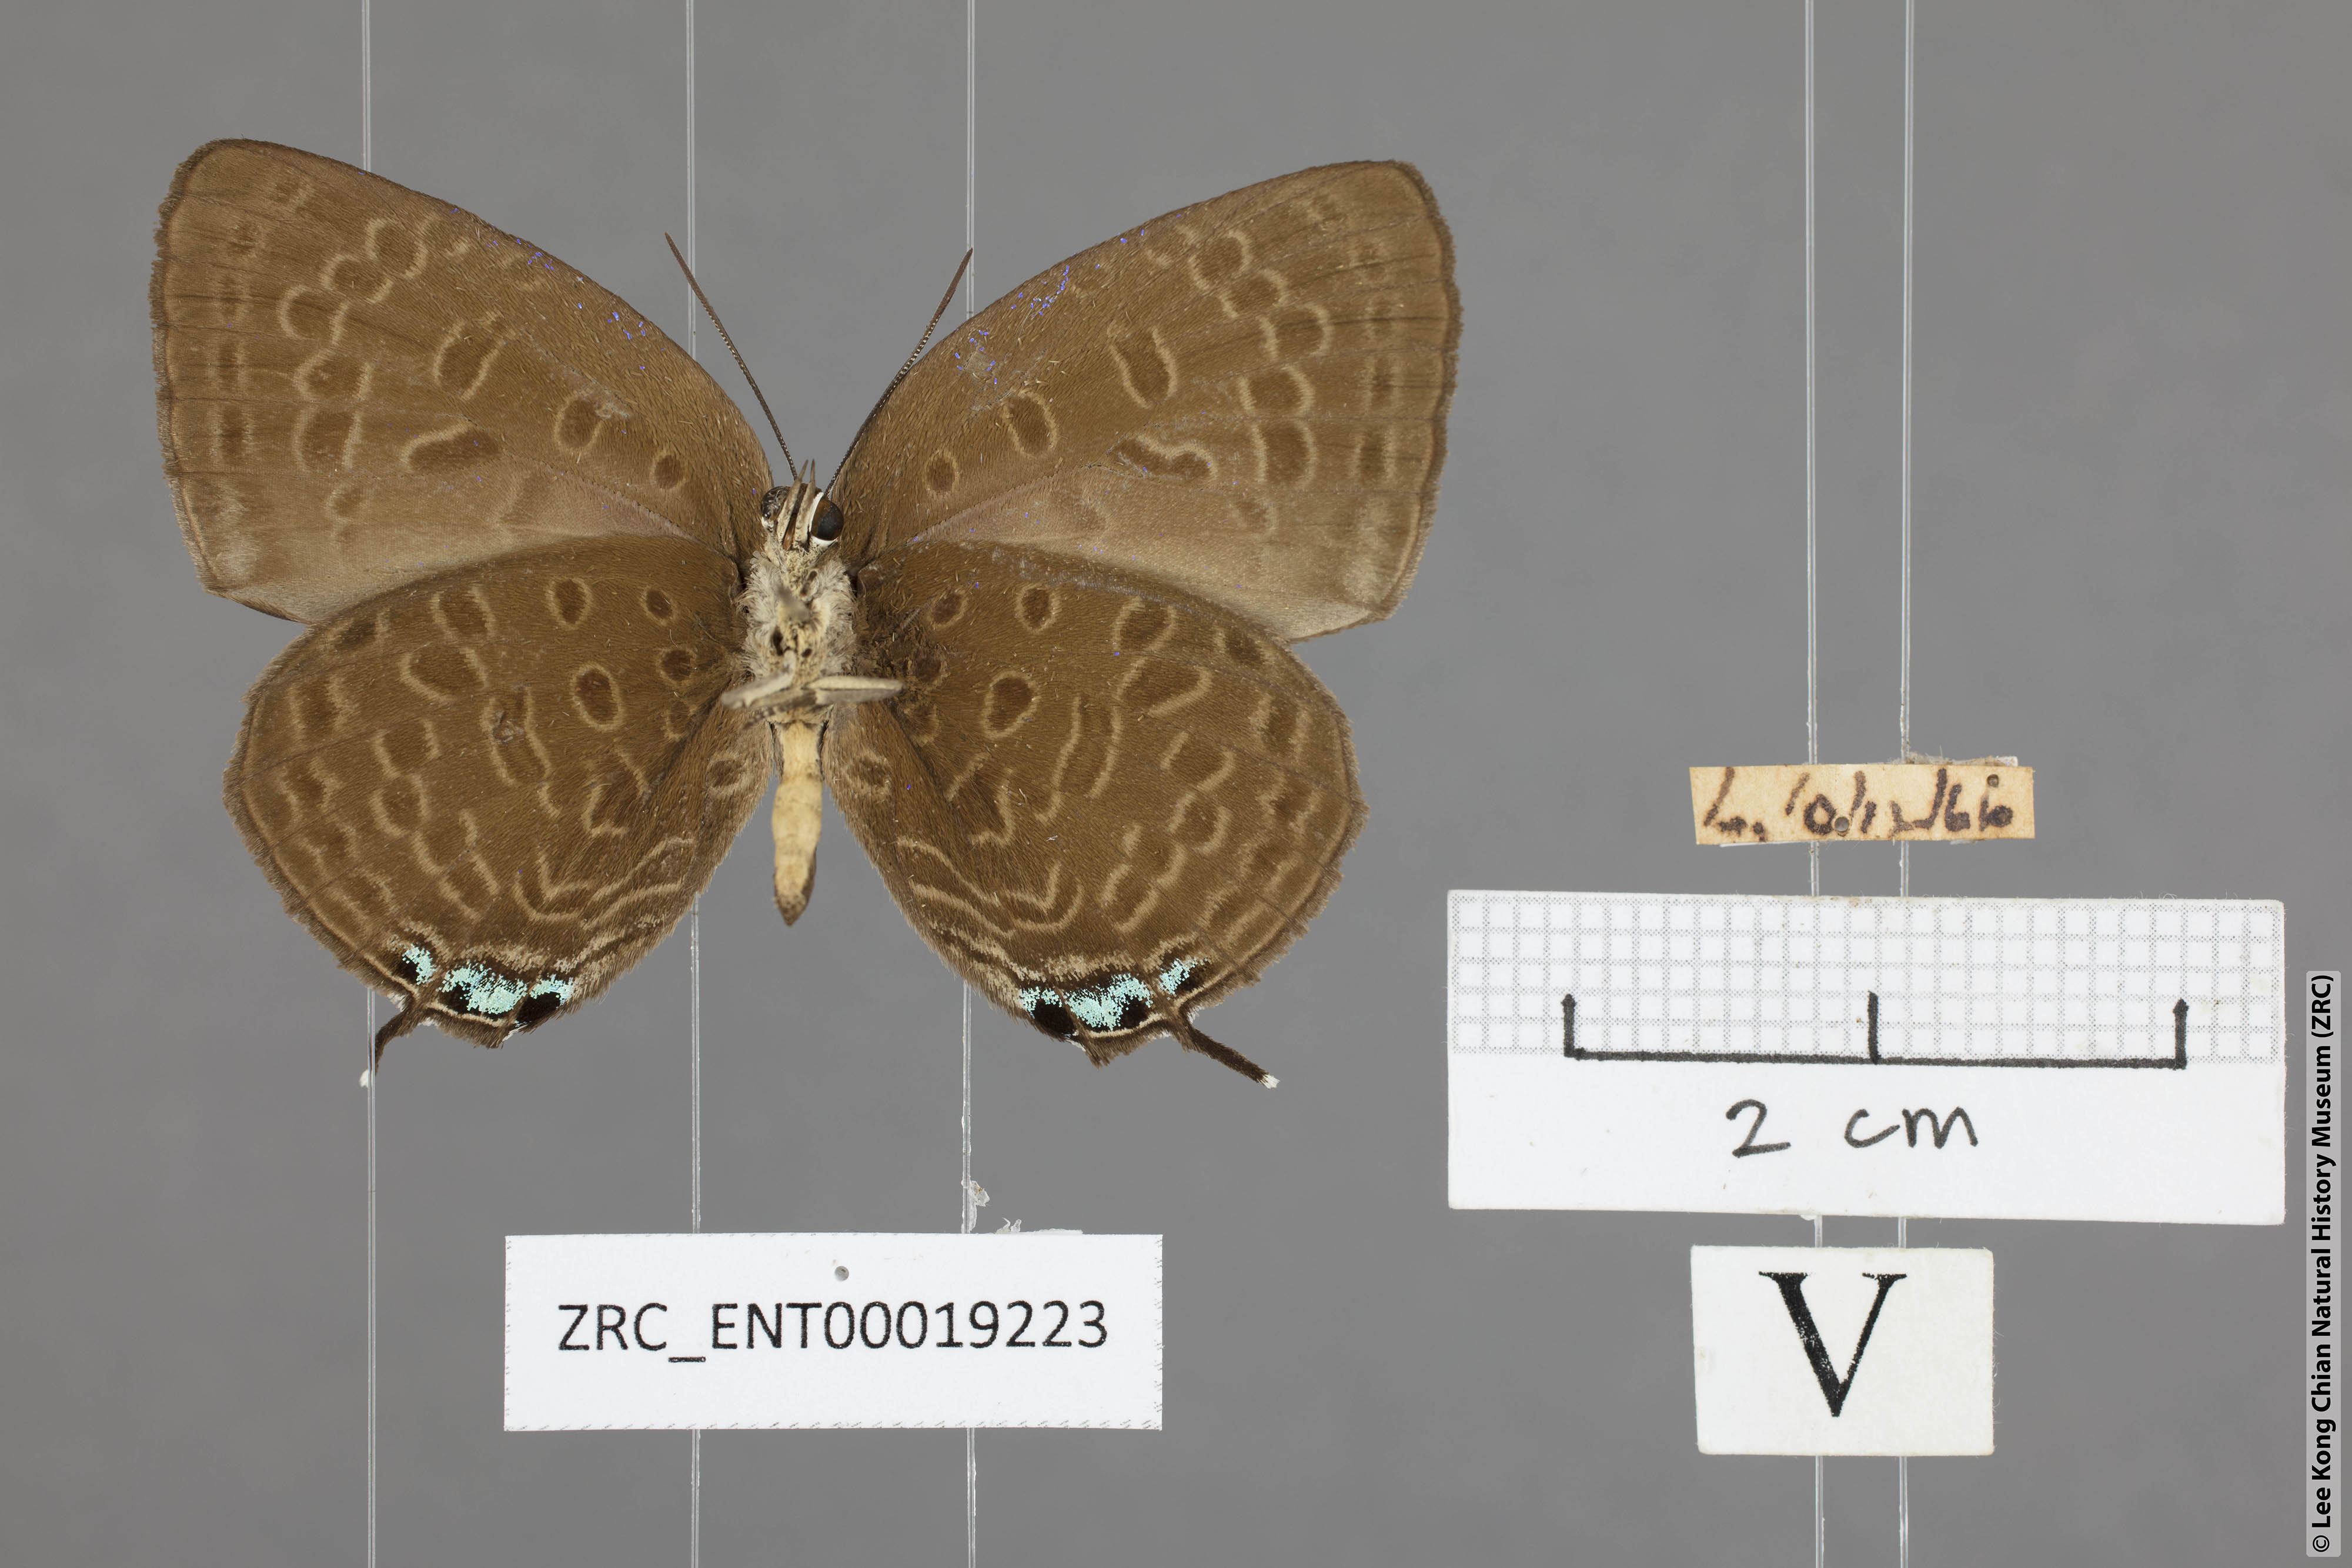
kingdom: Animalia
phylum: Arthropoda
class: Insecta
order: Lepidoptera
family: Lycaenidae
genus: Arhopala
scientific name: Arhopala atosia
